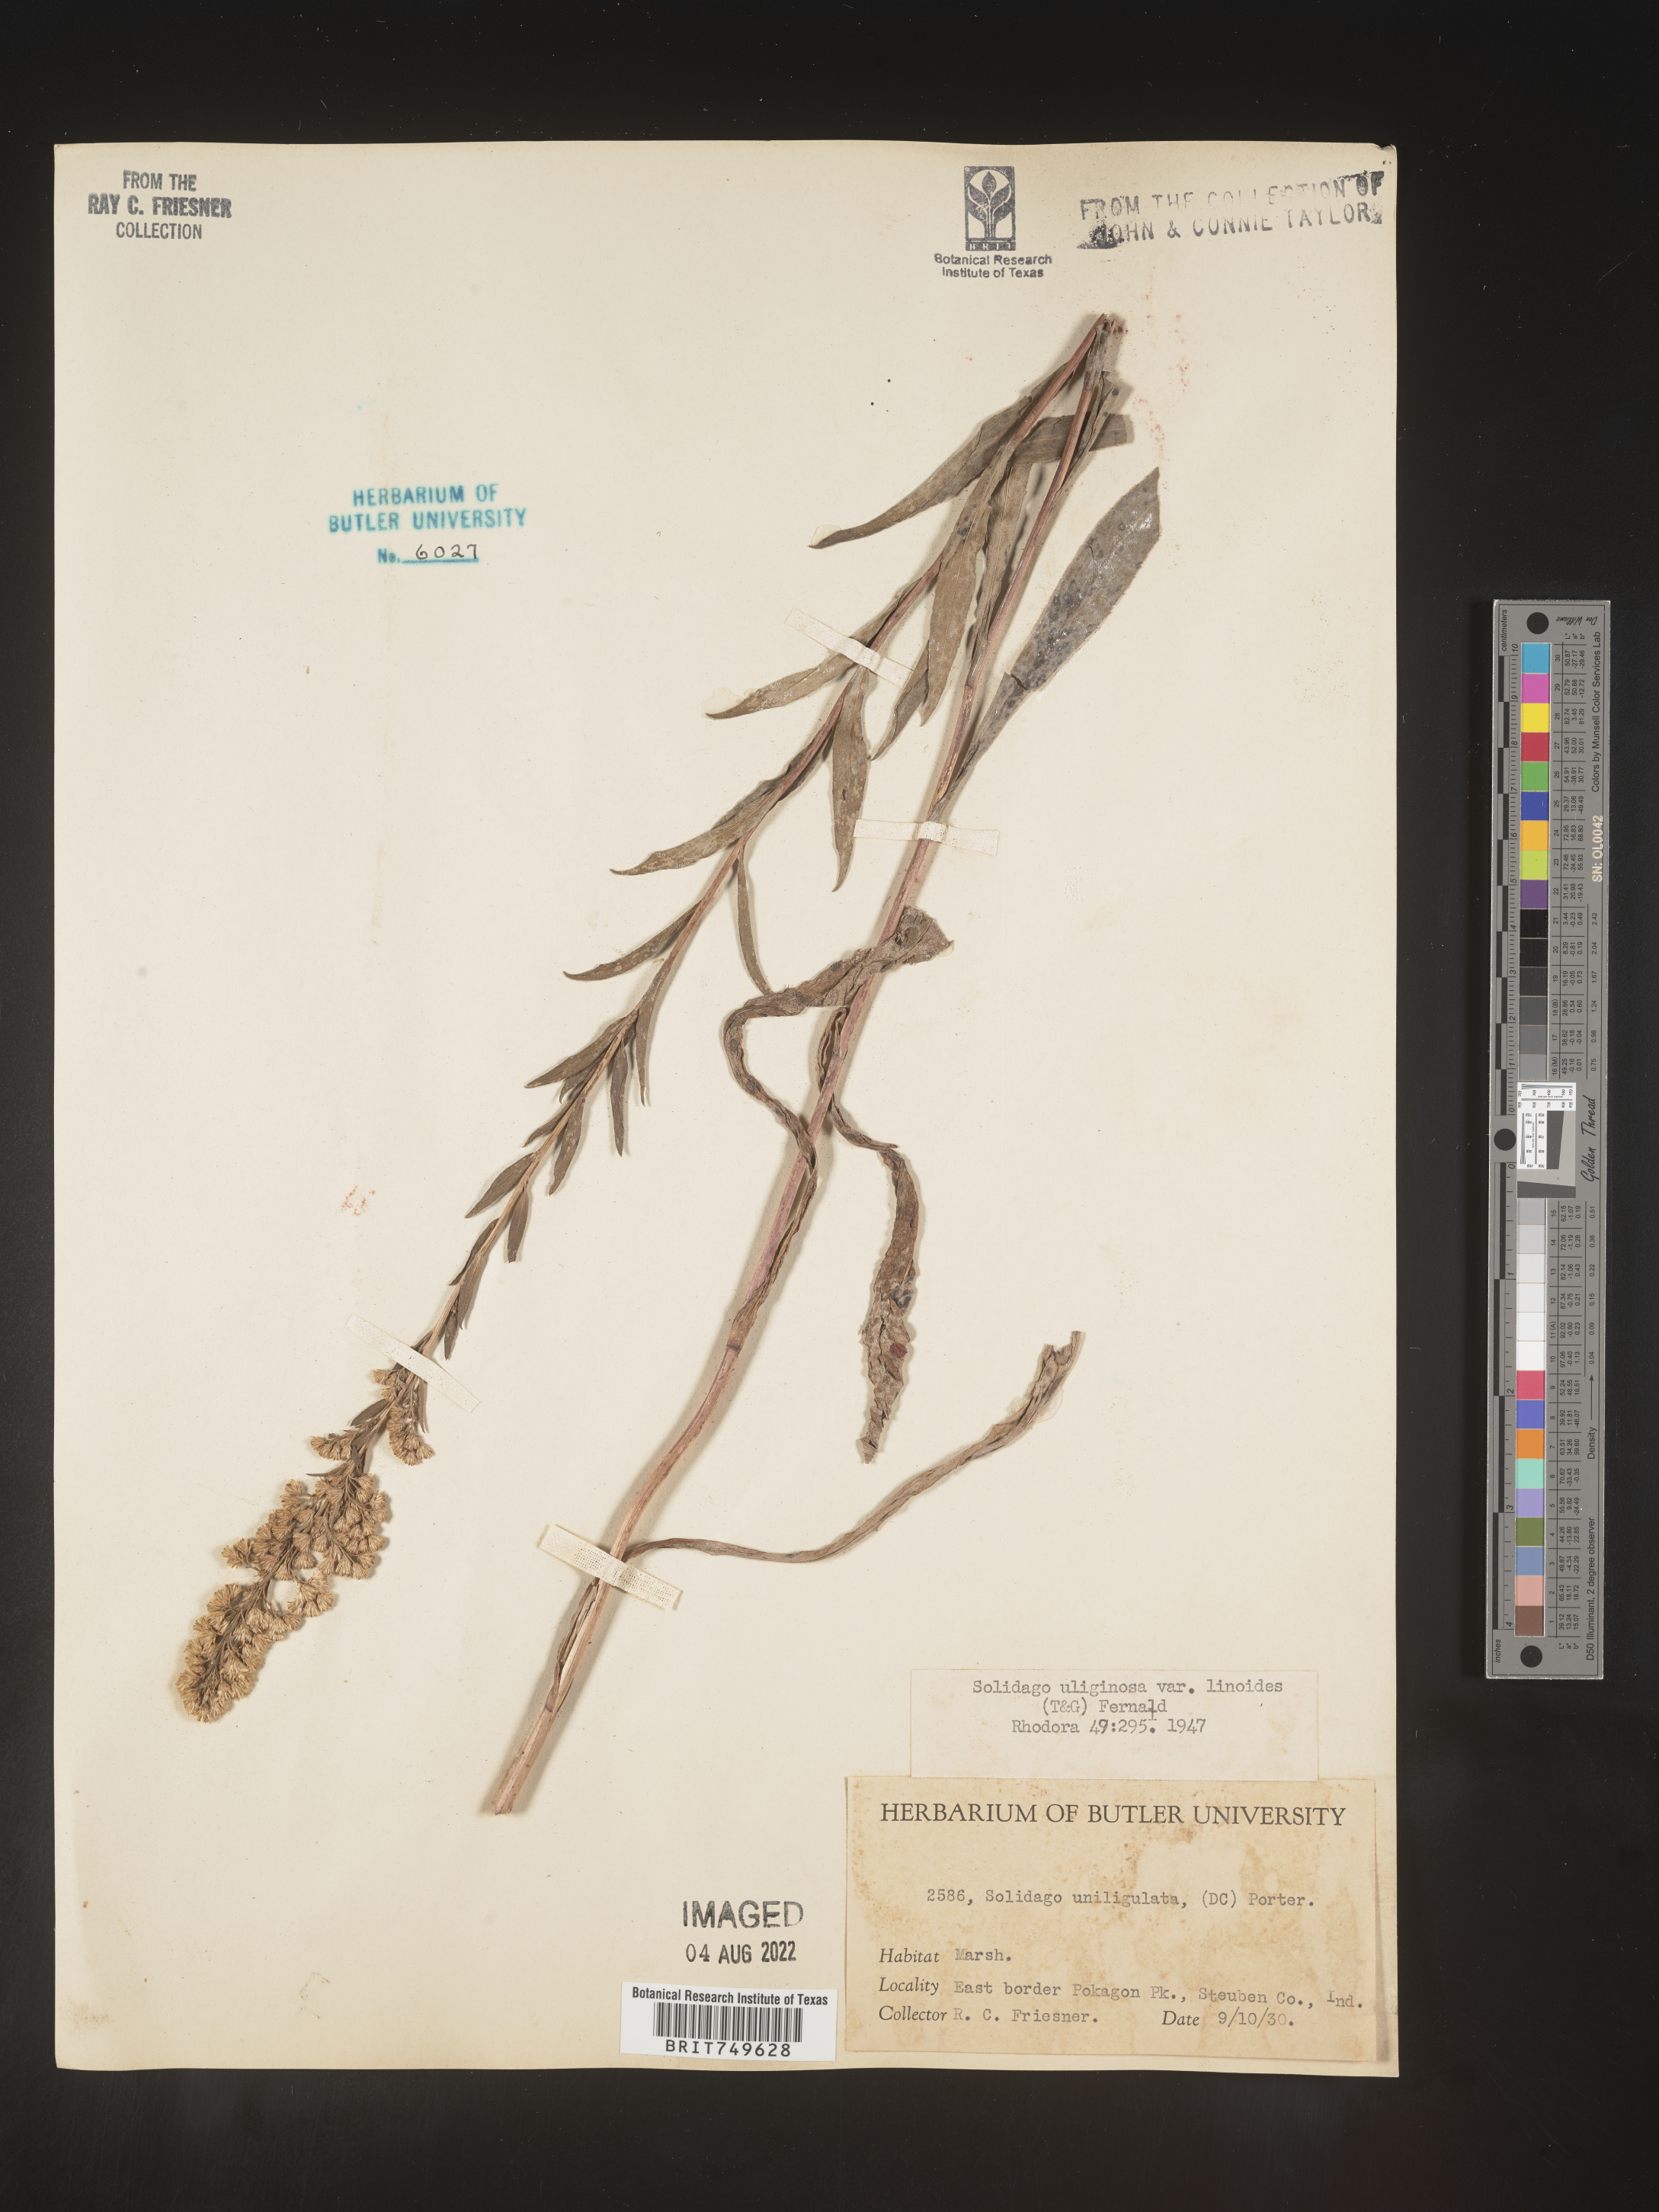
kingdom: Plantae
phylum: Tracheophyta
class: Magnoliopsida
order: Asterales
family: Asteraceae
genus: Solidago
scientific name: Solidago uliginosa
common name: Bog goldenrod
